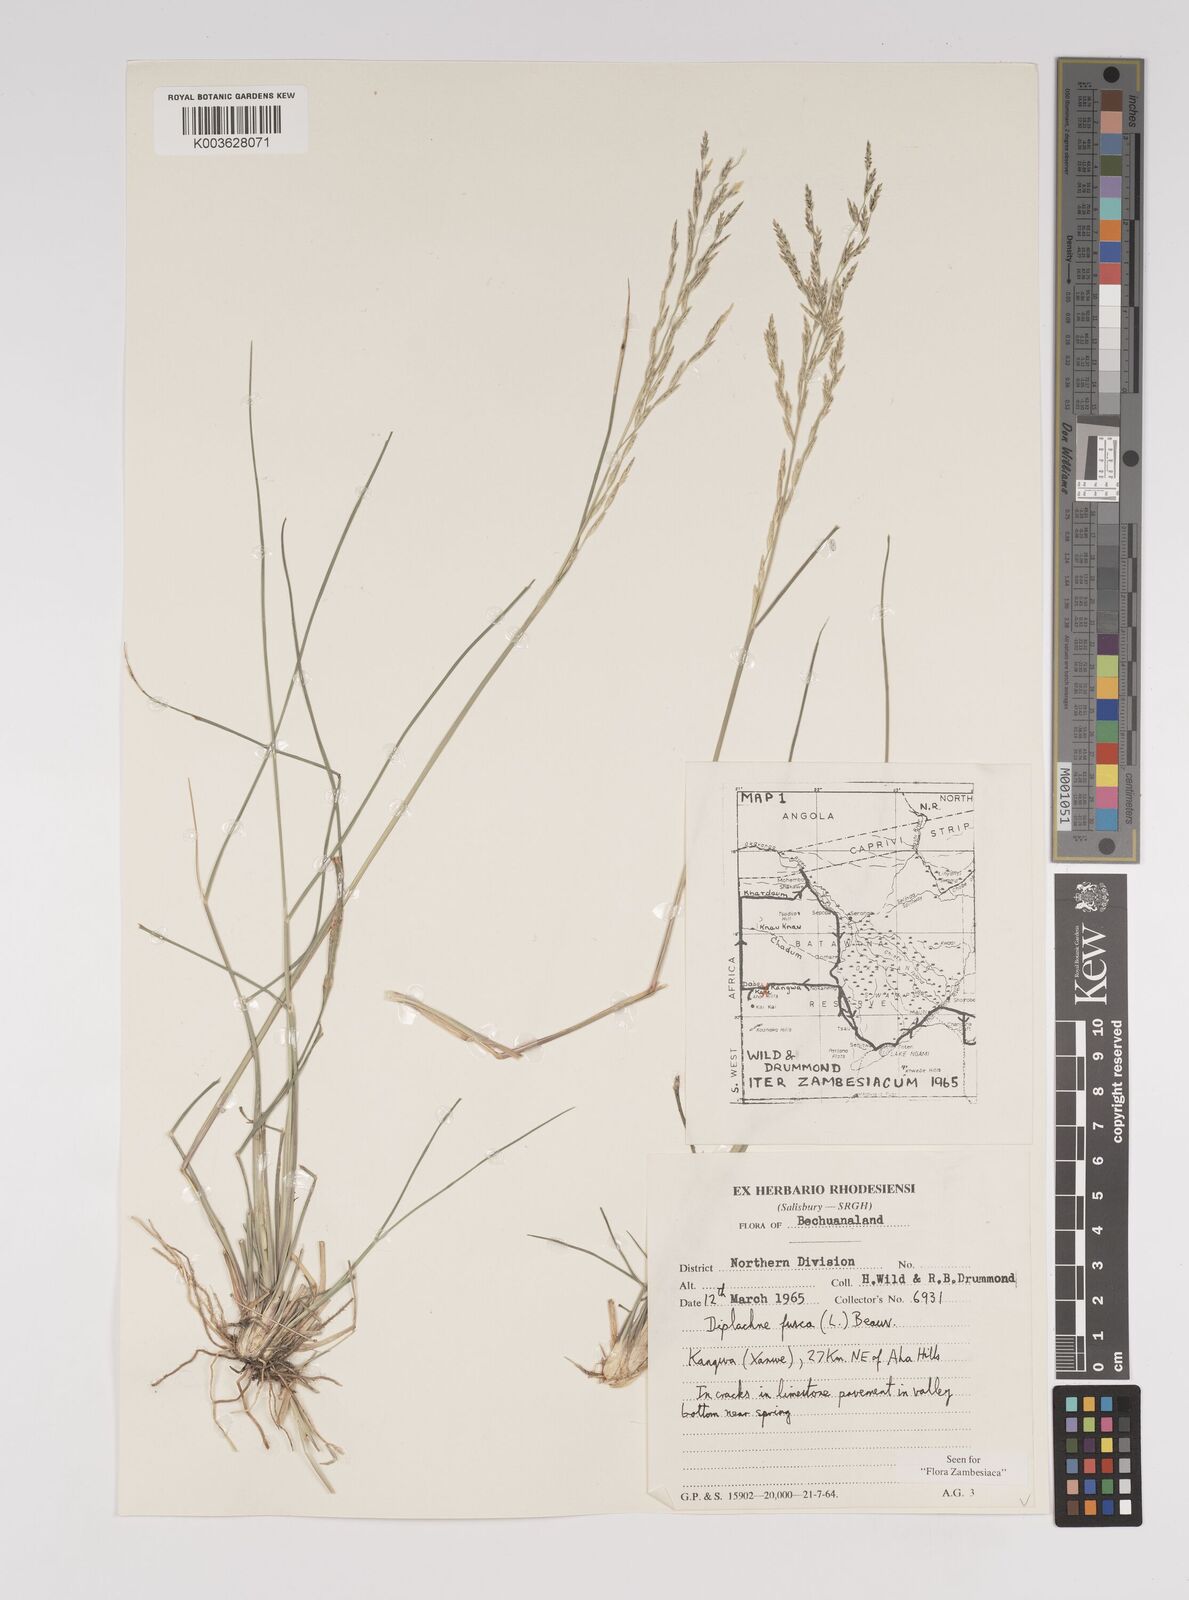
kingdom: Plantae
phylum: Tracheophyta
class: Liliopsida
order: Poales
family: Poaceae
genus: Diplachne
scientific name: Diplachne fusca
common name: Brown beetle grass
